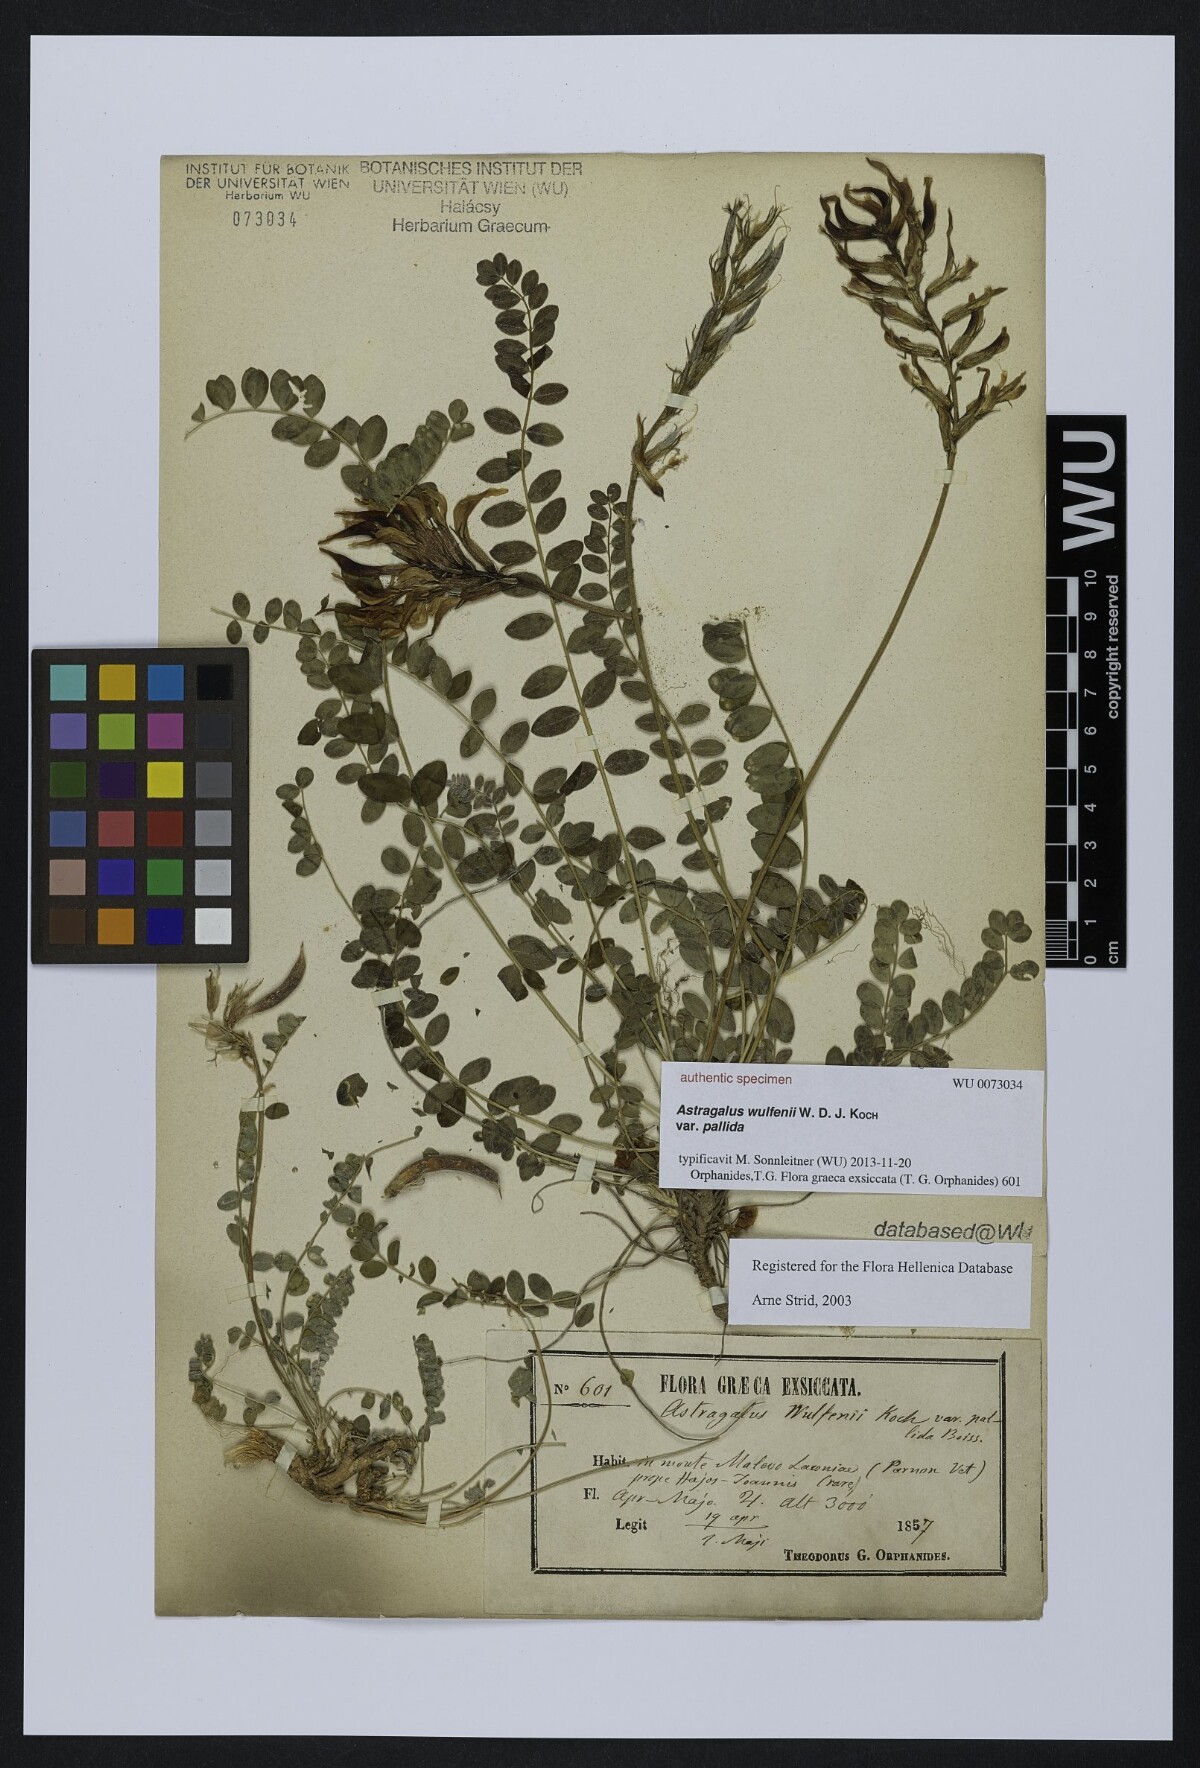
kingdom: Plantae
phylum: Tracheophyta
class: Magnoliopsida
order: Fabales
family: Fabaceae
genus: Astragalus
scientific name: Astragalus monspessulanus
